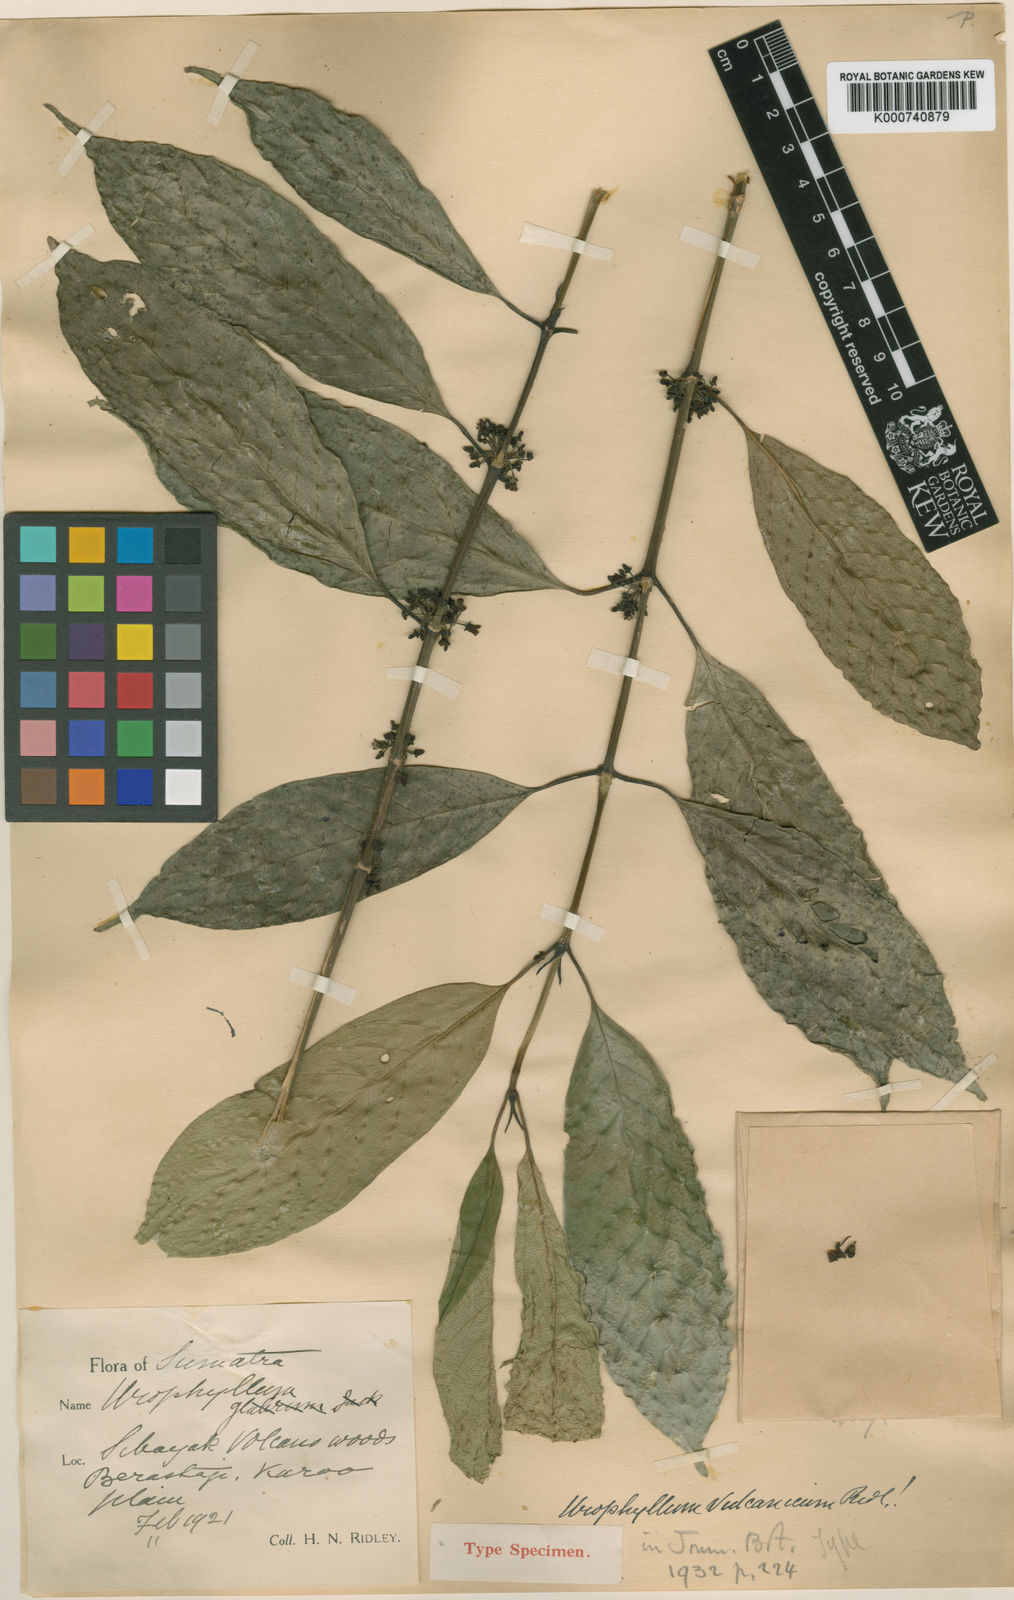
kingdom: Plantae
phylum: Tracheophyta
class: Magnoliopsida
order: Gentianales
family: Rubiaceae
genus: Urophyllum
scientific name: Urophyllum vulcanicum
